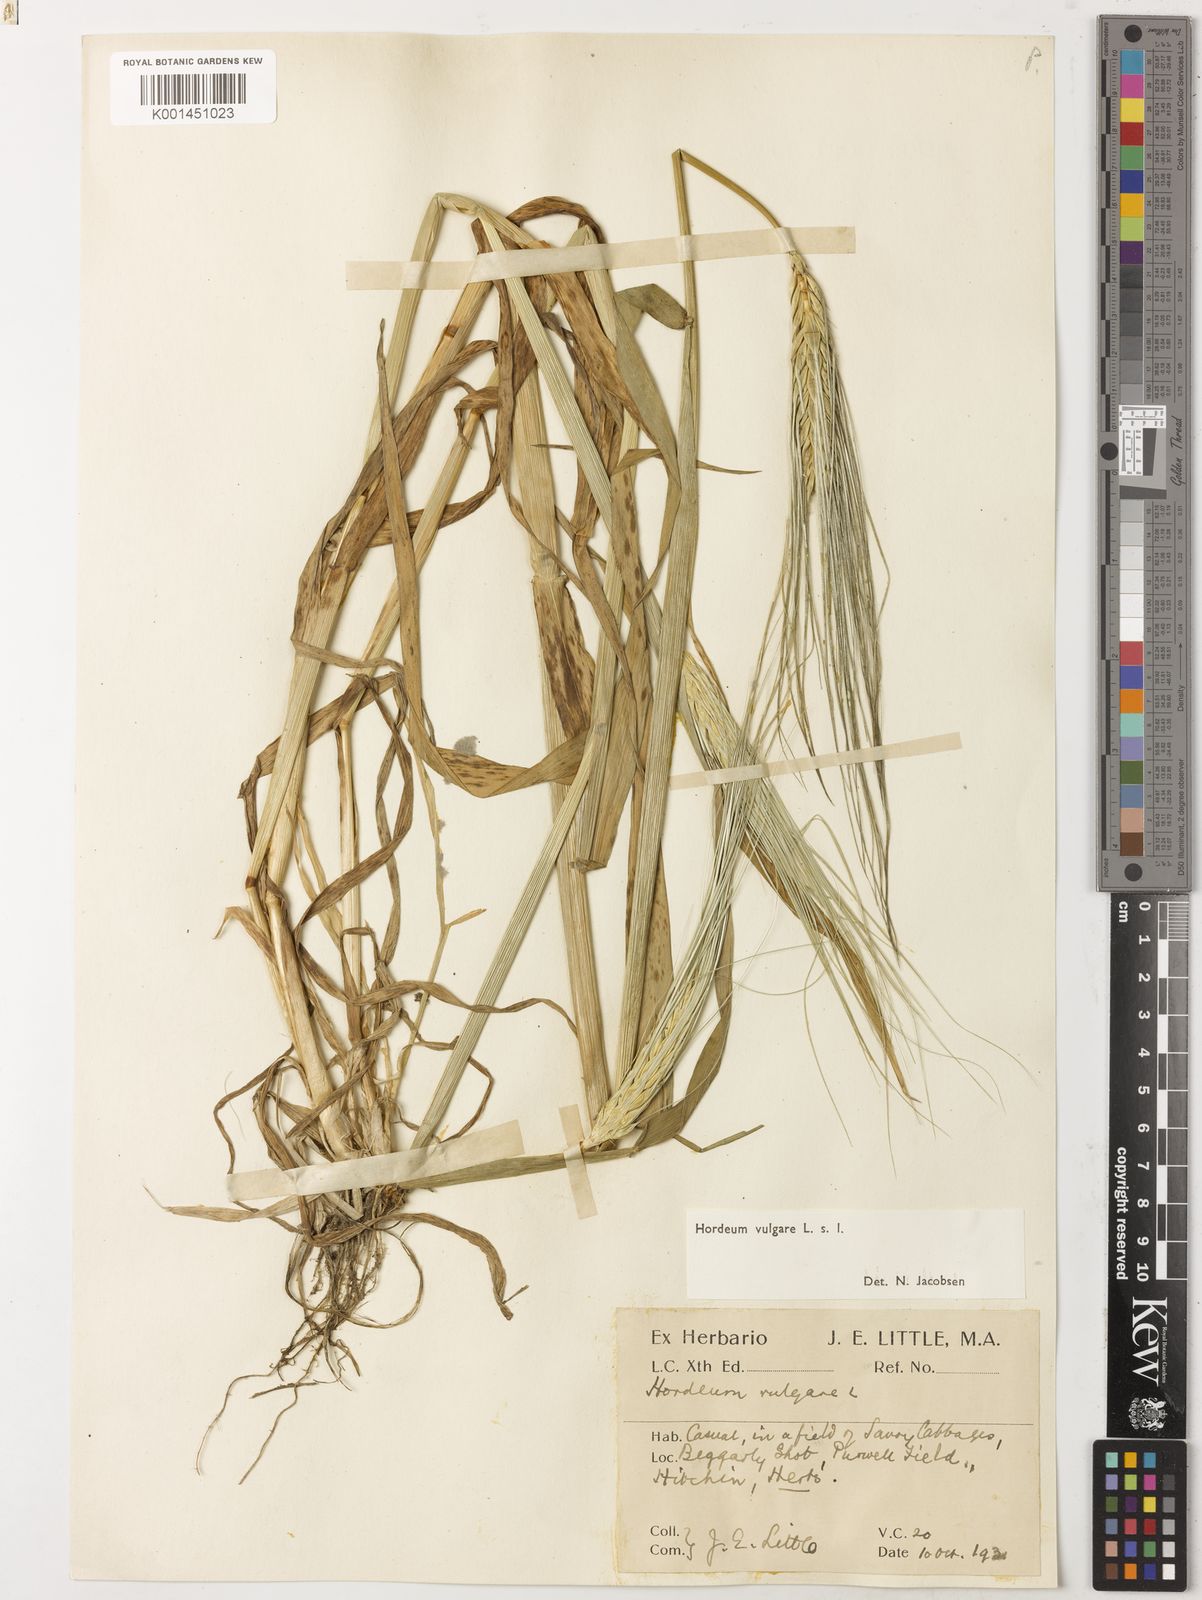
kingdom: Plantae
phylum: Tracheophyta
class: Liliopsida
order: Poales
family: Poaceae
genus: Hordeum
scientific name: Hordeum vulgare
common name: Common barley
